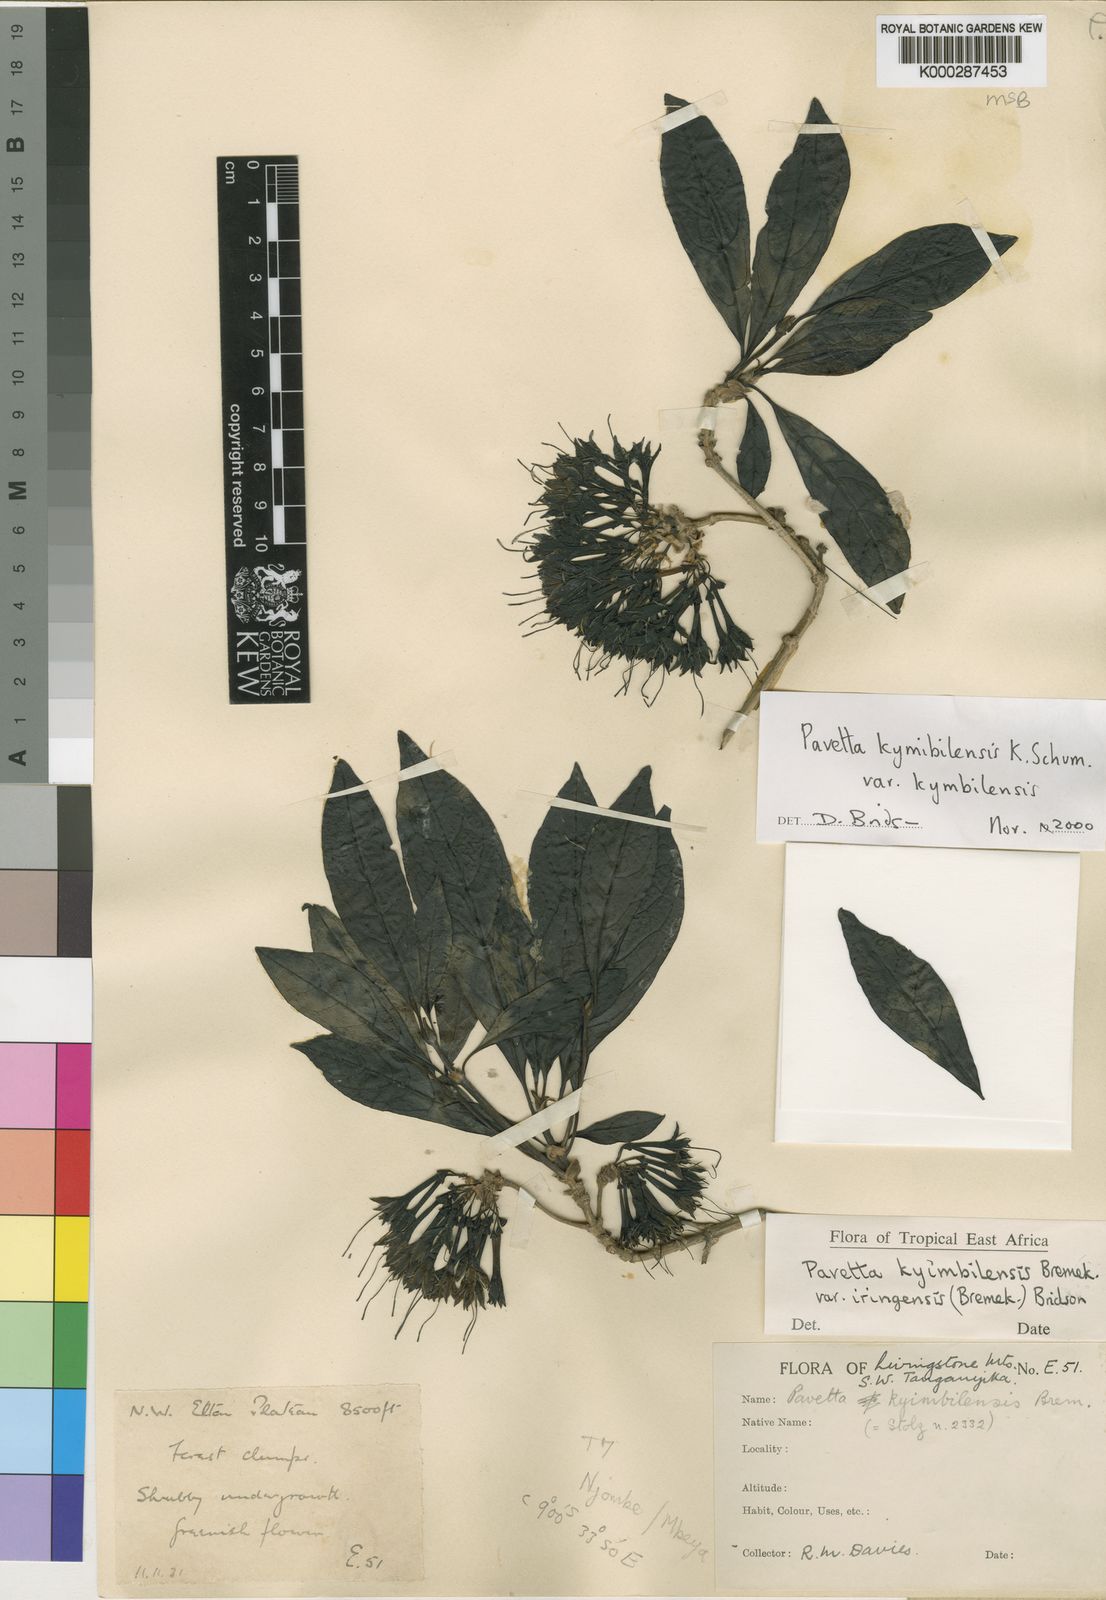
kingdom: Plantae
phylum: Tracheophyta
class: Magnoliopsida
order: Gentianales
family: Rubiaceae
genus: Pavetta
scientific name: Pavetta kyimbilensis
